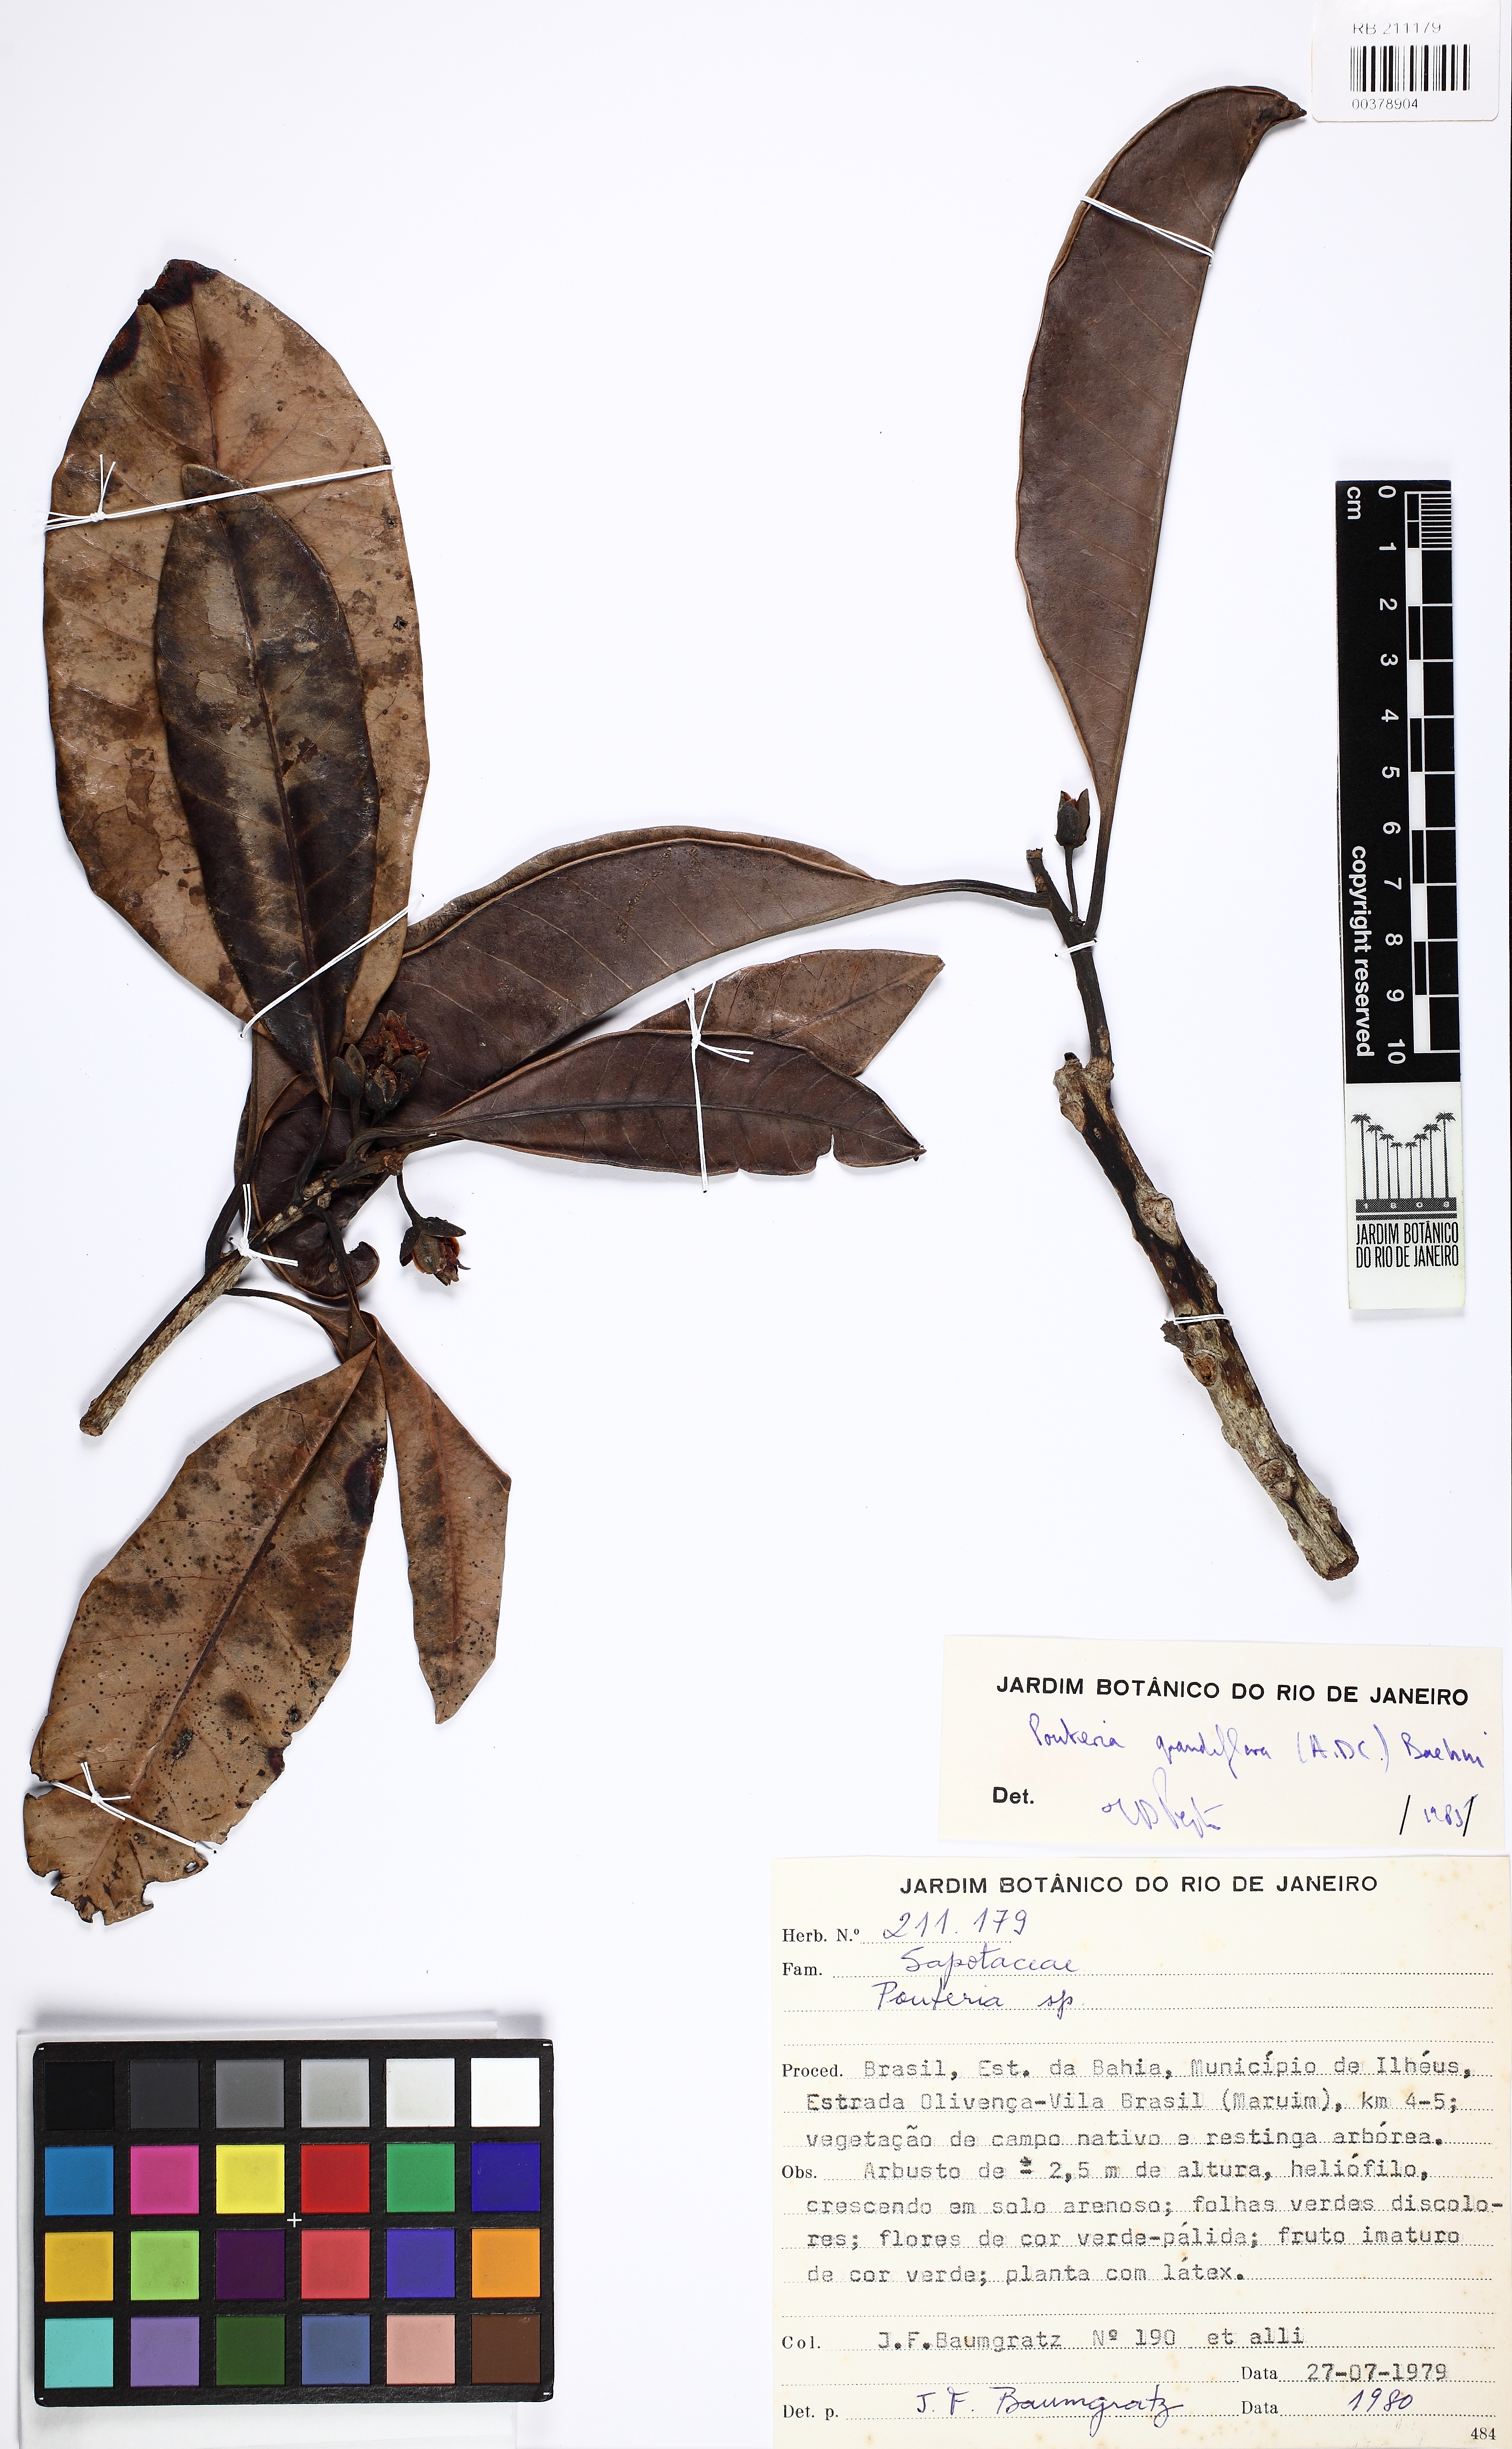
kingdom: Plantae
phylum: Tracheophyta
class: Magnoliopsida
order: Ericales
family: Sapotaceae
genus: Pouteria
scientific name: Pouteria grandiflora
